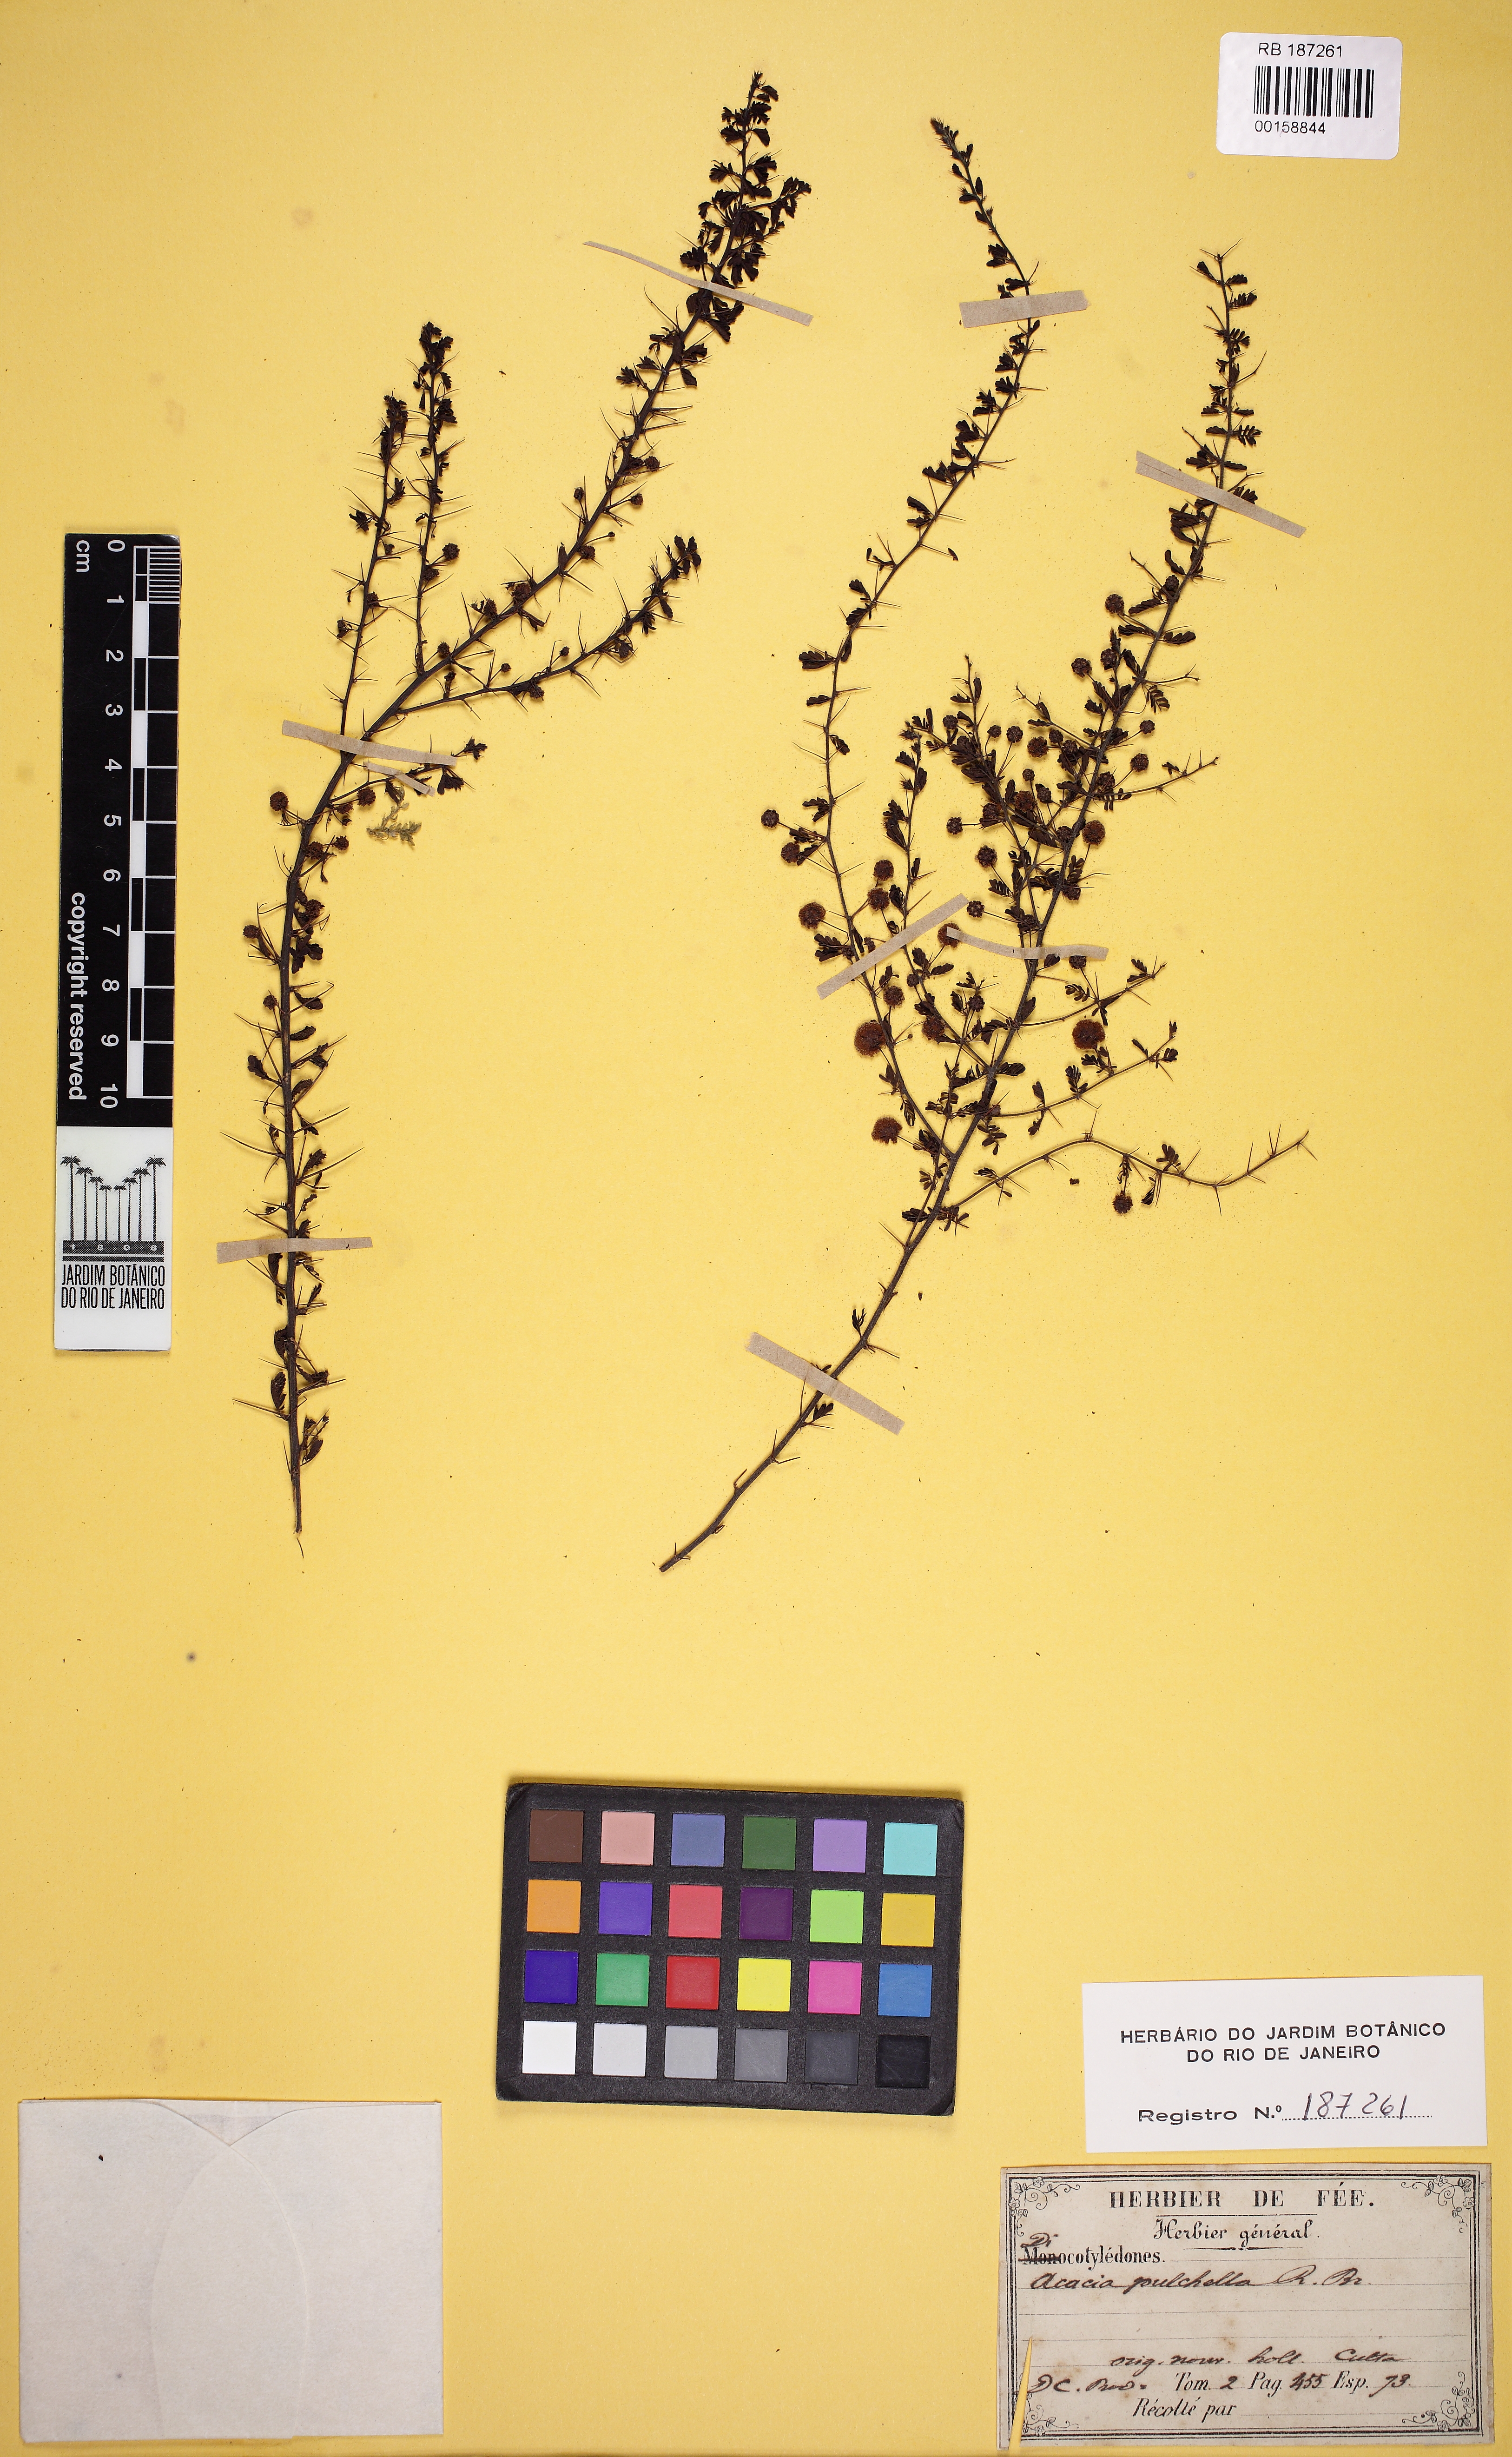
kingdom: Plantae
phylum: Tracheophyta
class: Magnoliopsida
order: Fabales
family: Fabaceae
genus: Acacia
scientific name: Acacia pulchella
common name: Prickly moses
